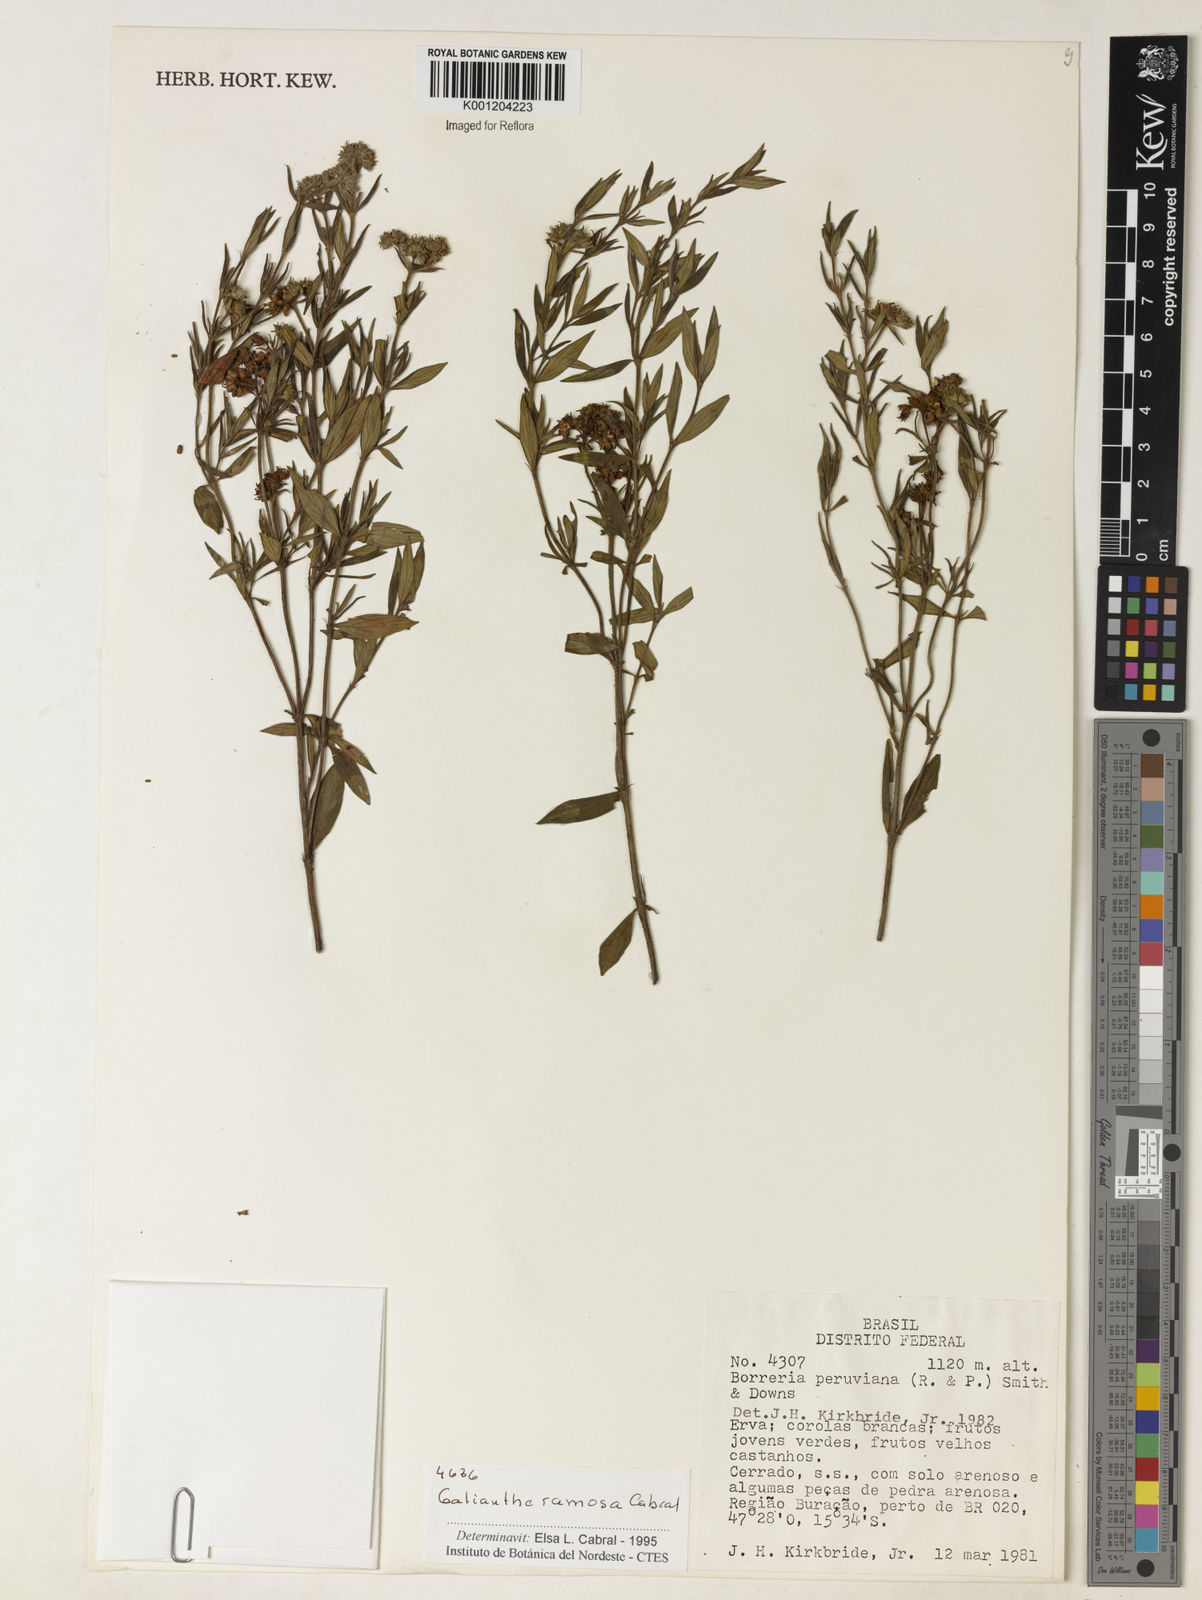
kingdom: Plantae
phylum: Tracheophyta
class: Magnoliopsida
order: Gentianales
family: Rubiaceae
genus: Galianthe
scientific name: Galianthe ramosa
